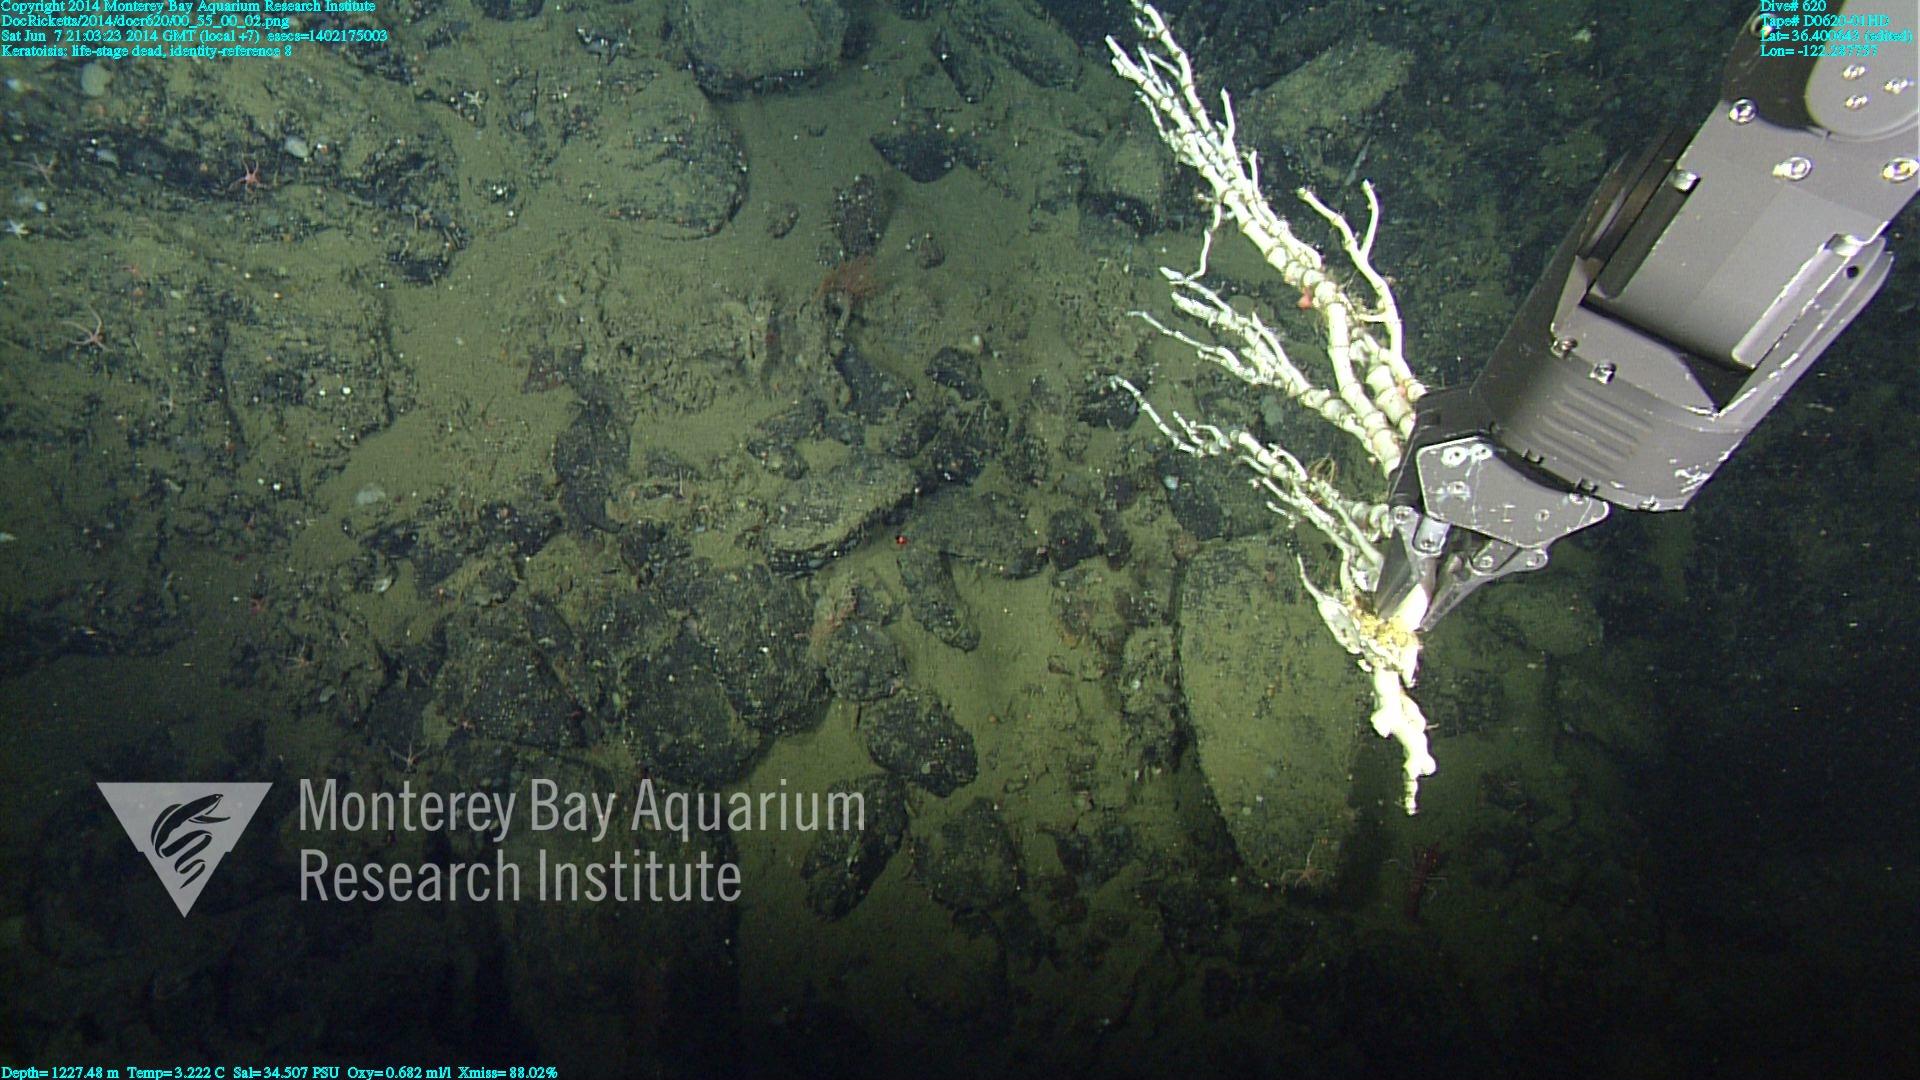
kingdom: Animalia
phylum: Cnidaria
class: Anthozoa
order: Scleralcyonacea
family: Keratoisididae
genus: Keratoisis
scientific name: Keratoisis
